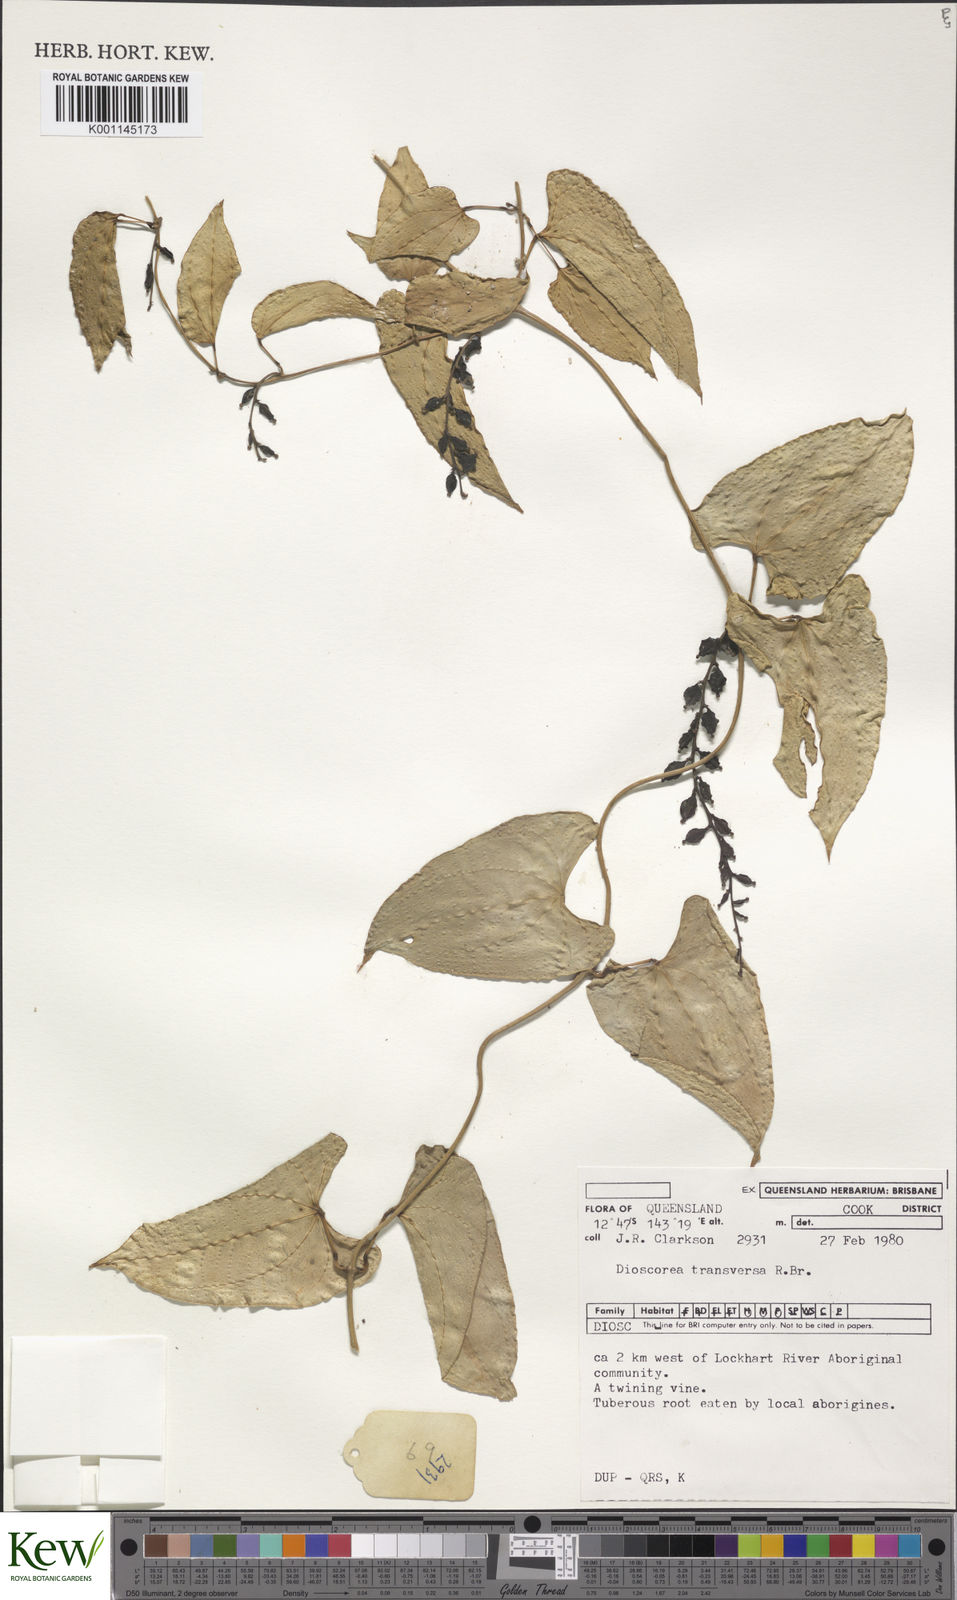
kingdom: Plantae
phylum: Tracheophyta
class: Liliopsida
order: Dioscoreales
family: Dioscoreaceae
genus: Dioscorea
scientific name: Dioscorea transversa
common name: Long yam
